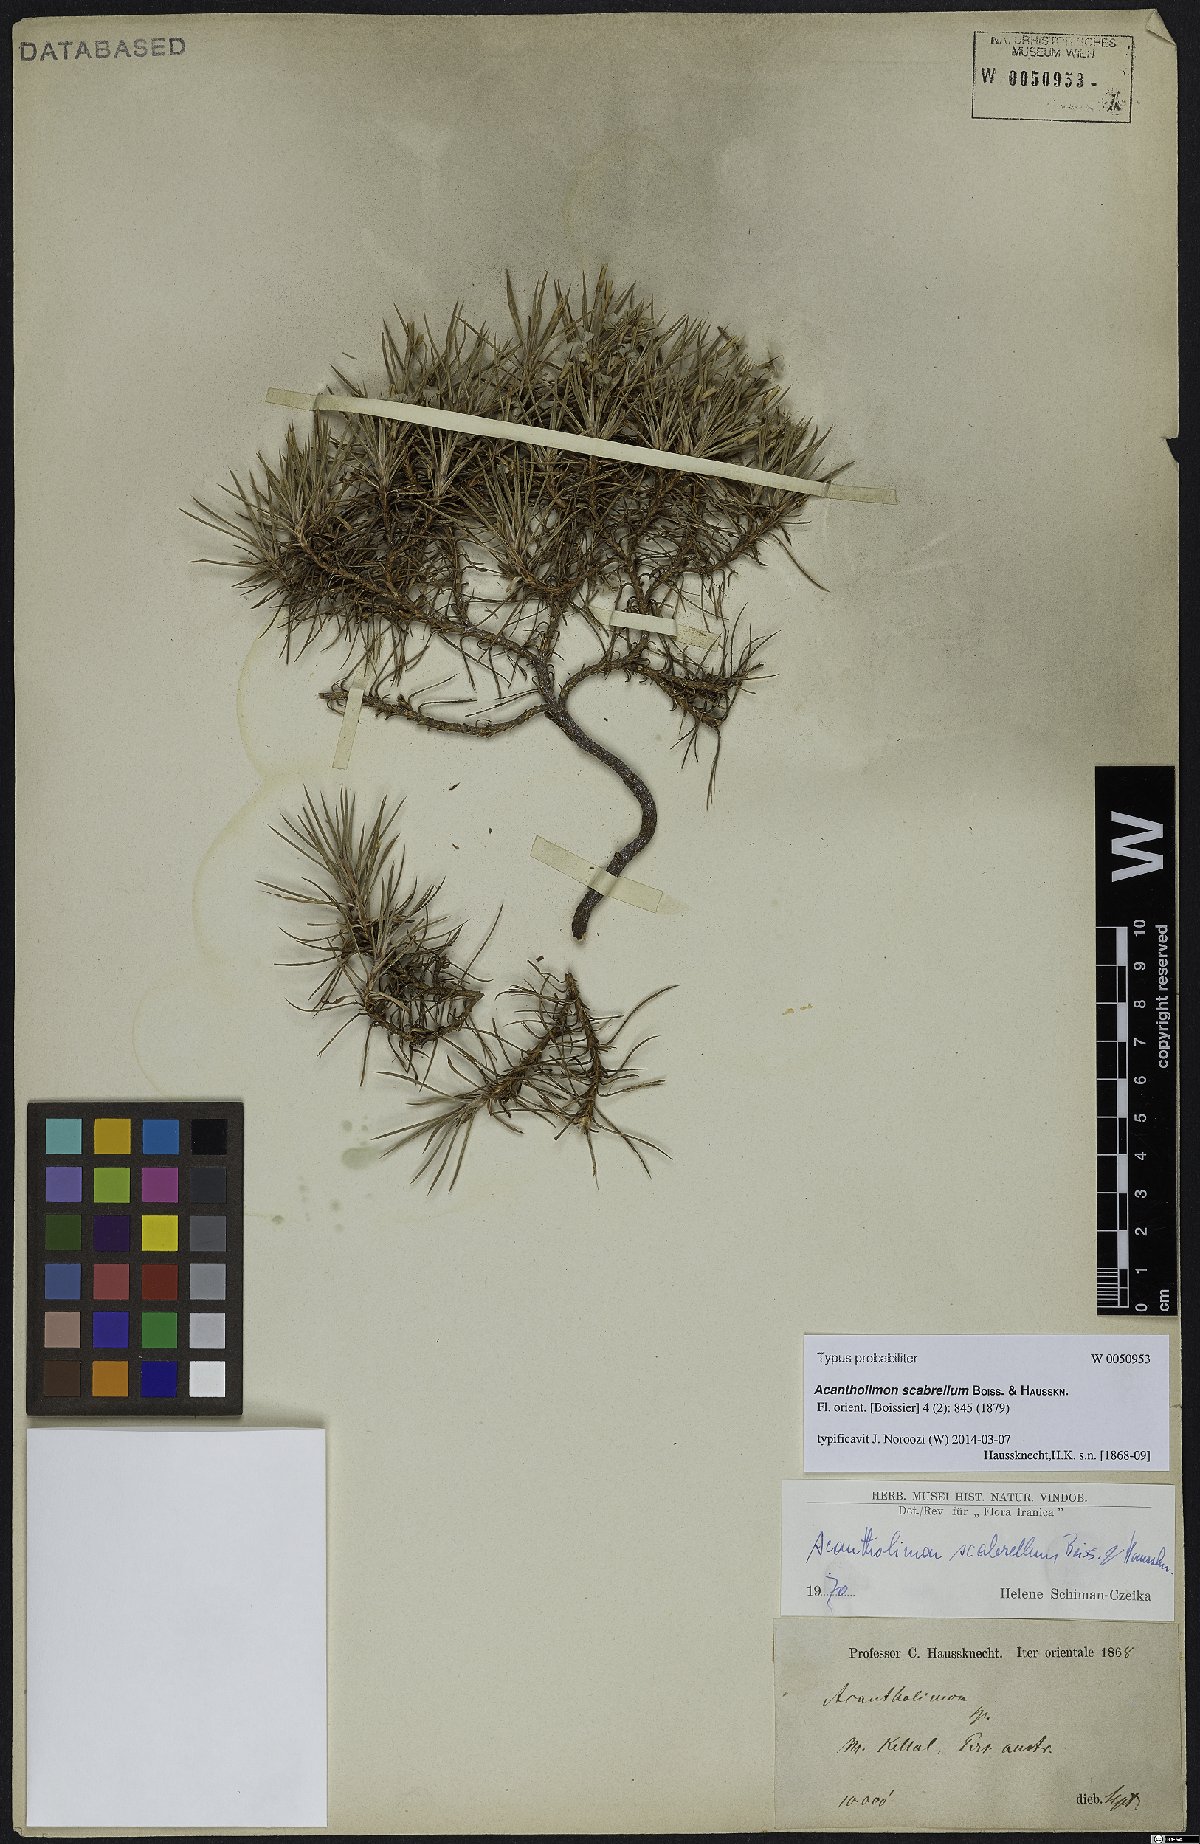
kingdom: Plantae
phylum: Tracheophyta
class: Magnoliopsida
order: Caryophyllales
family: Plumbaginaceae
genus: Acantholimon
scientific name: Acantholimon scabrellum
